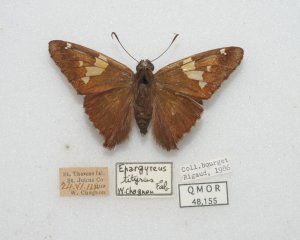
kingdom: Animalia
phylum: Arthropoda
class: Insecta
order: Lepidoptera
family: Hesperiidae
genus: Epargyreus
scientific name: Epargyreus clarus
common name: Silver-spotted Skipper
